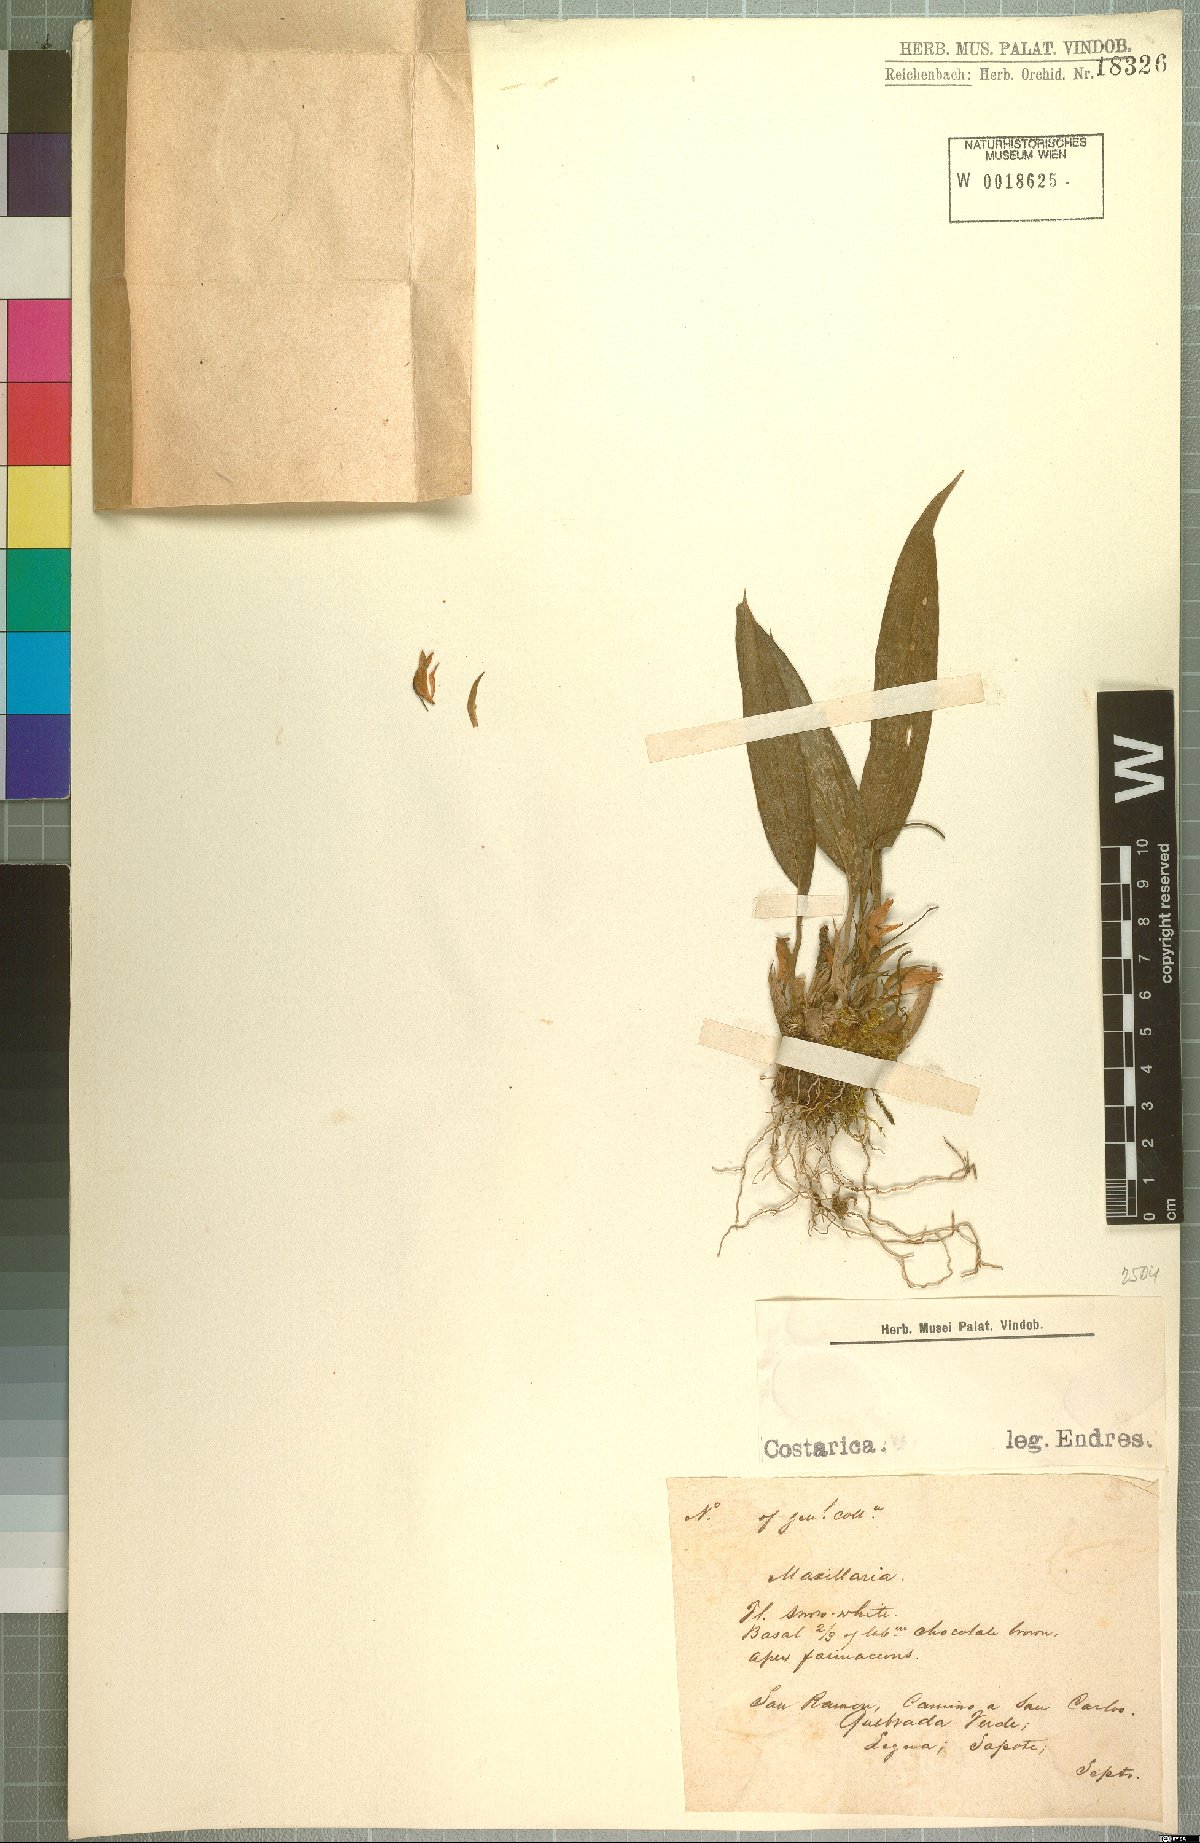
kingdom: Plantae
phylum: Tracheophyta
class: Liliopsida
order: Asparagales
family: Orchidaceae
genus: Maxillaria
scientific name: Maxillaria
